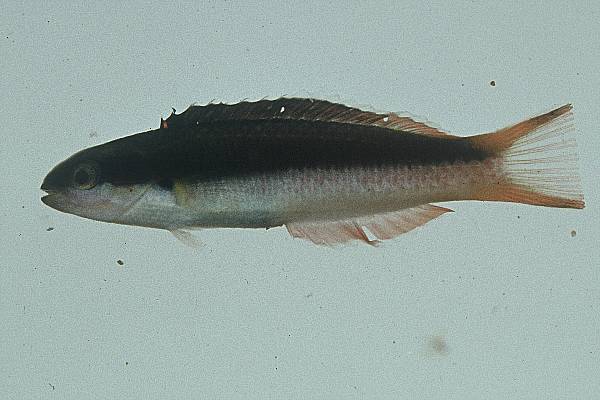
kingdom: Animalia
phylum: Chordata
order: Perciformes
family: Labridae
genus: Thalassoma
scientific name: Thalassoma amblycephalum
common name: Bluehead wrasse
